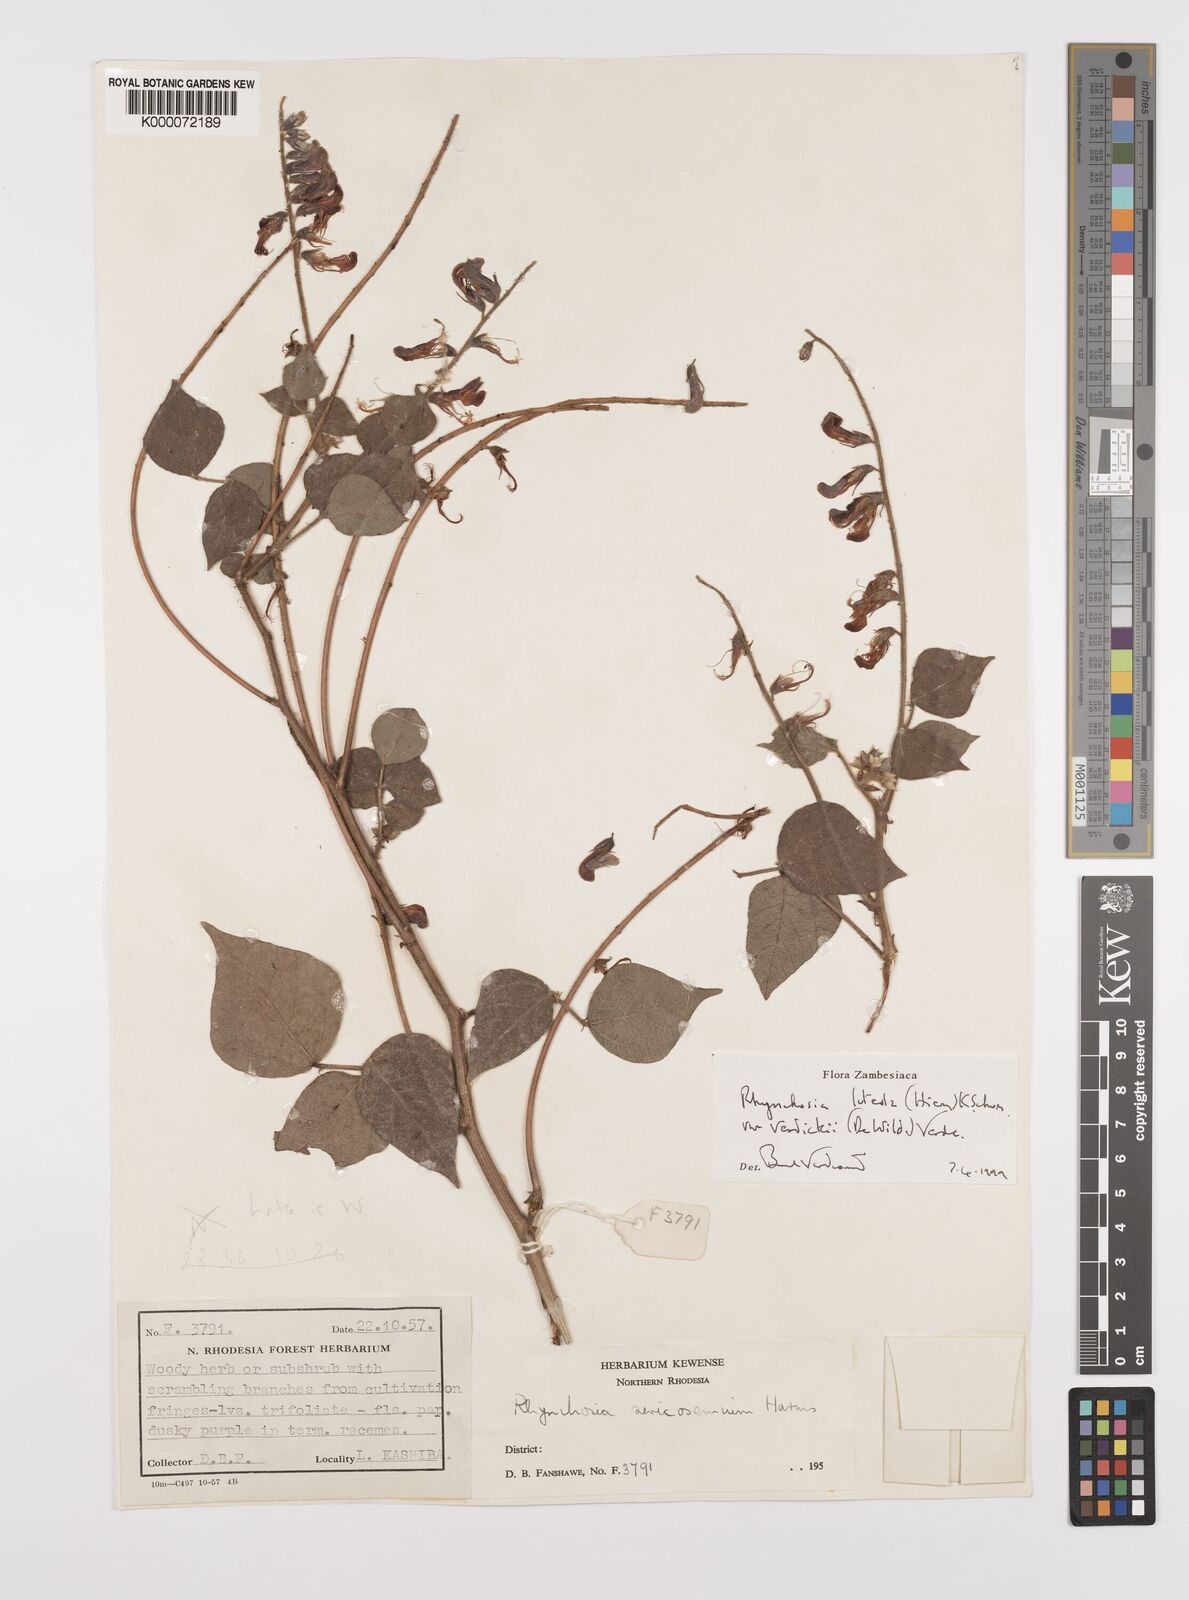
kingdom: Plantae
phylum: Tracheophyta
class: Magnoliopsida
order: Fabales
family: Fabaceae
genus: Rhynchosia
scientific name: Rhynchosia luteola
